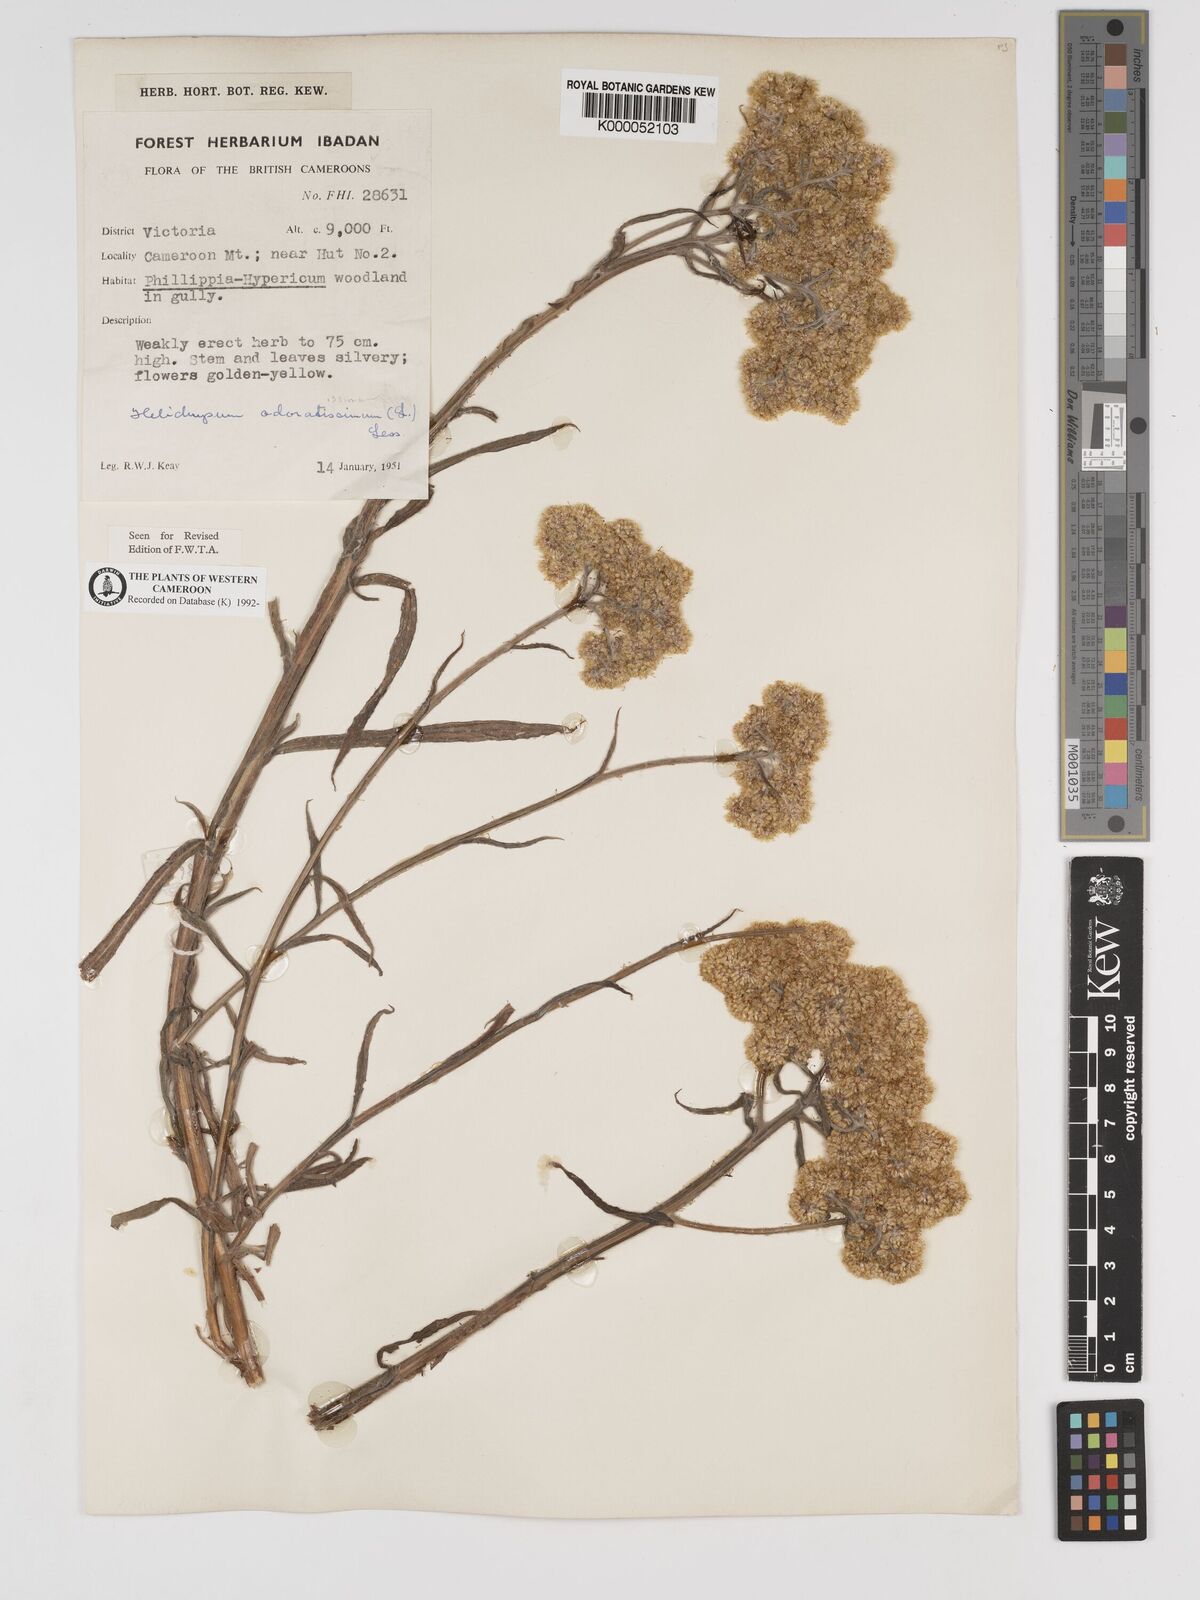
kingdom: Plantae
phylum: Tracheophyta
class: Magnoliopsida
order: Asterales
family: Asteraceae
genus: Helichrysum
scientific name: Helichrysum odoratissimum
